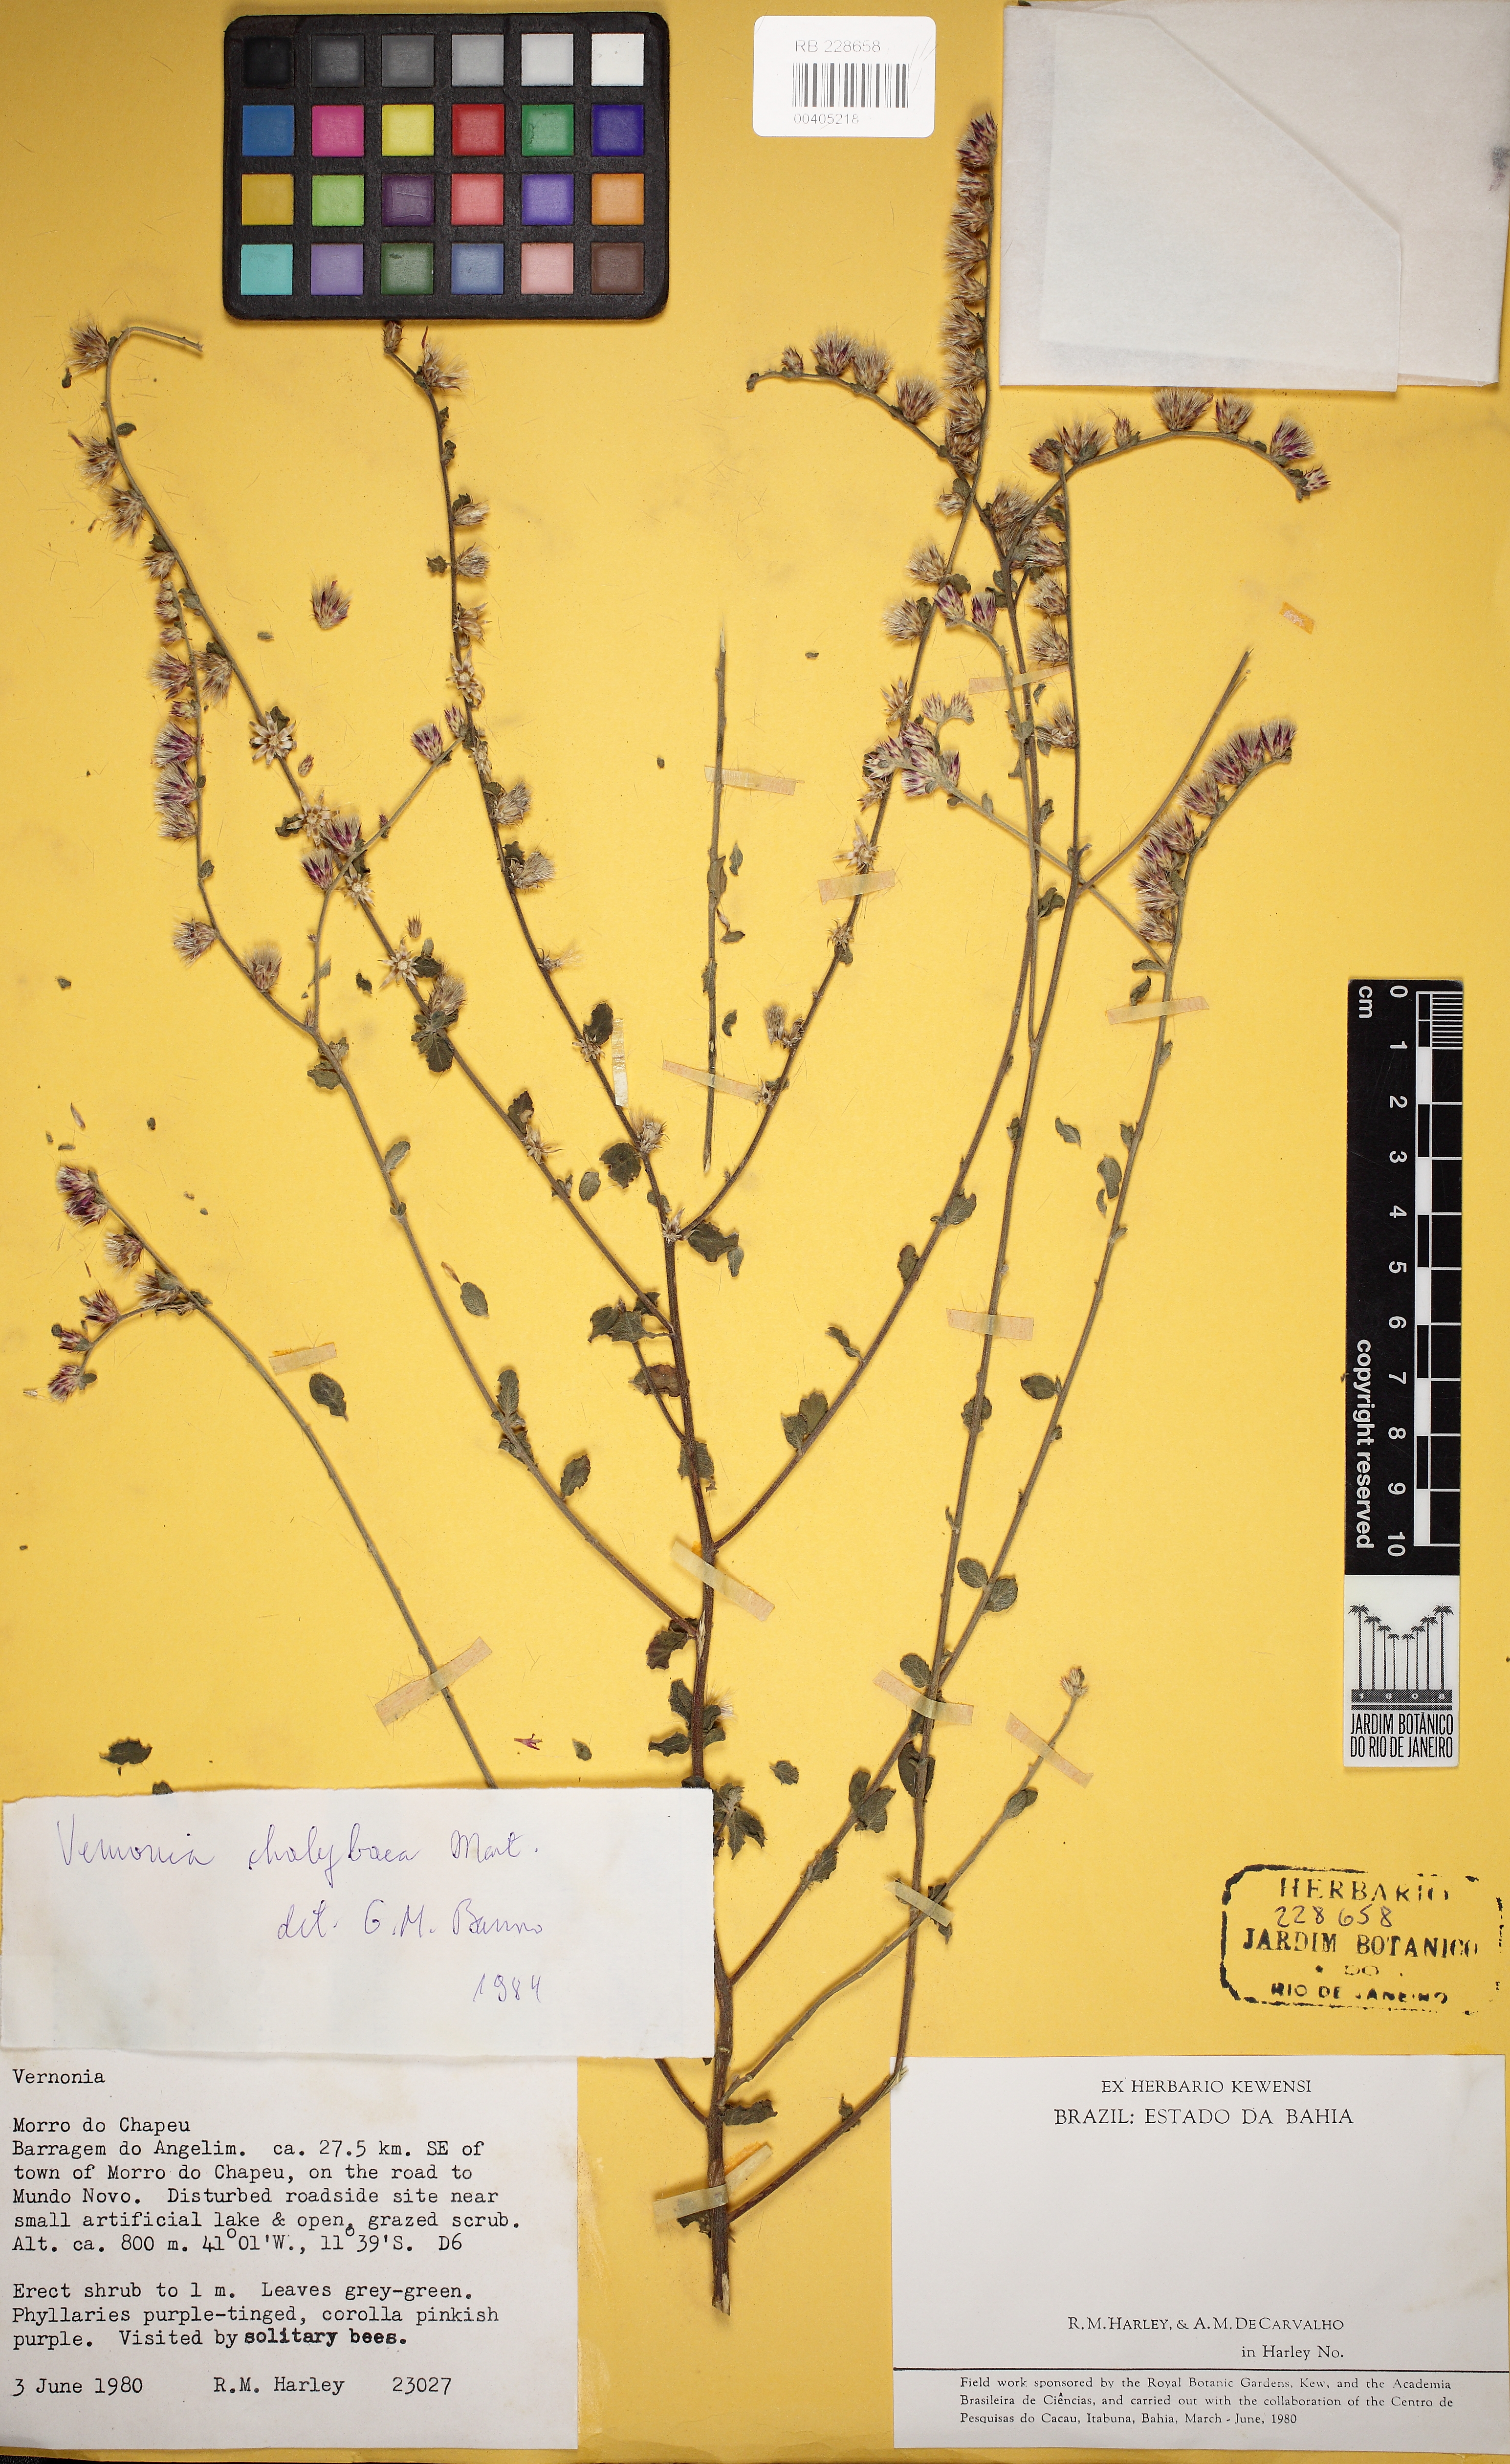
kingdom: Plantae
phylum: Tracheophyta
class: Magnoliopsida
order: Asterales
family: Asteraceae
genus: Lepidaploa
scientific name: Lepidaploa chalybaea
